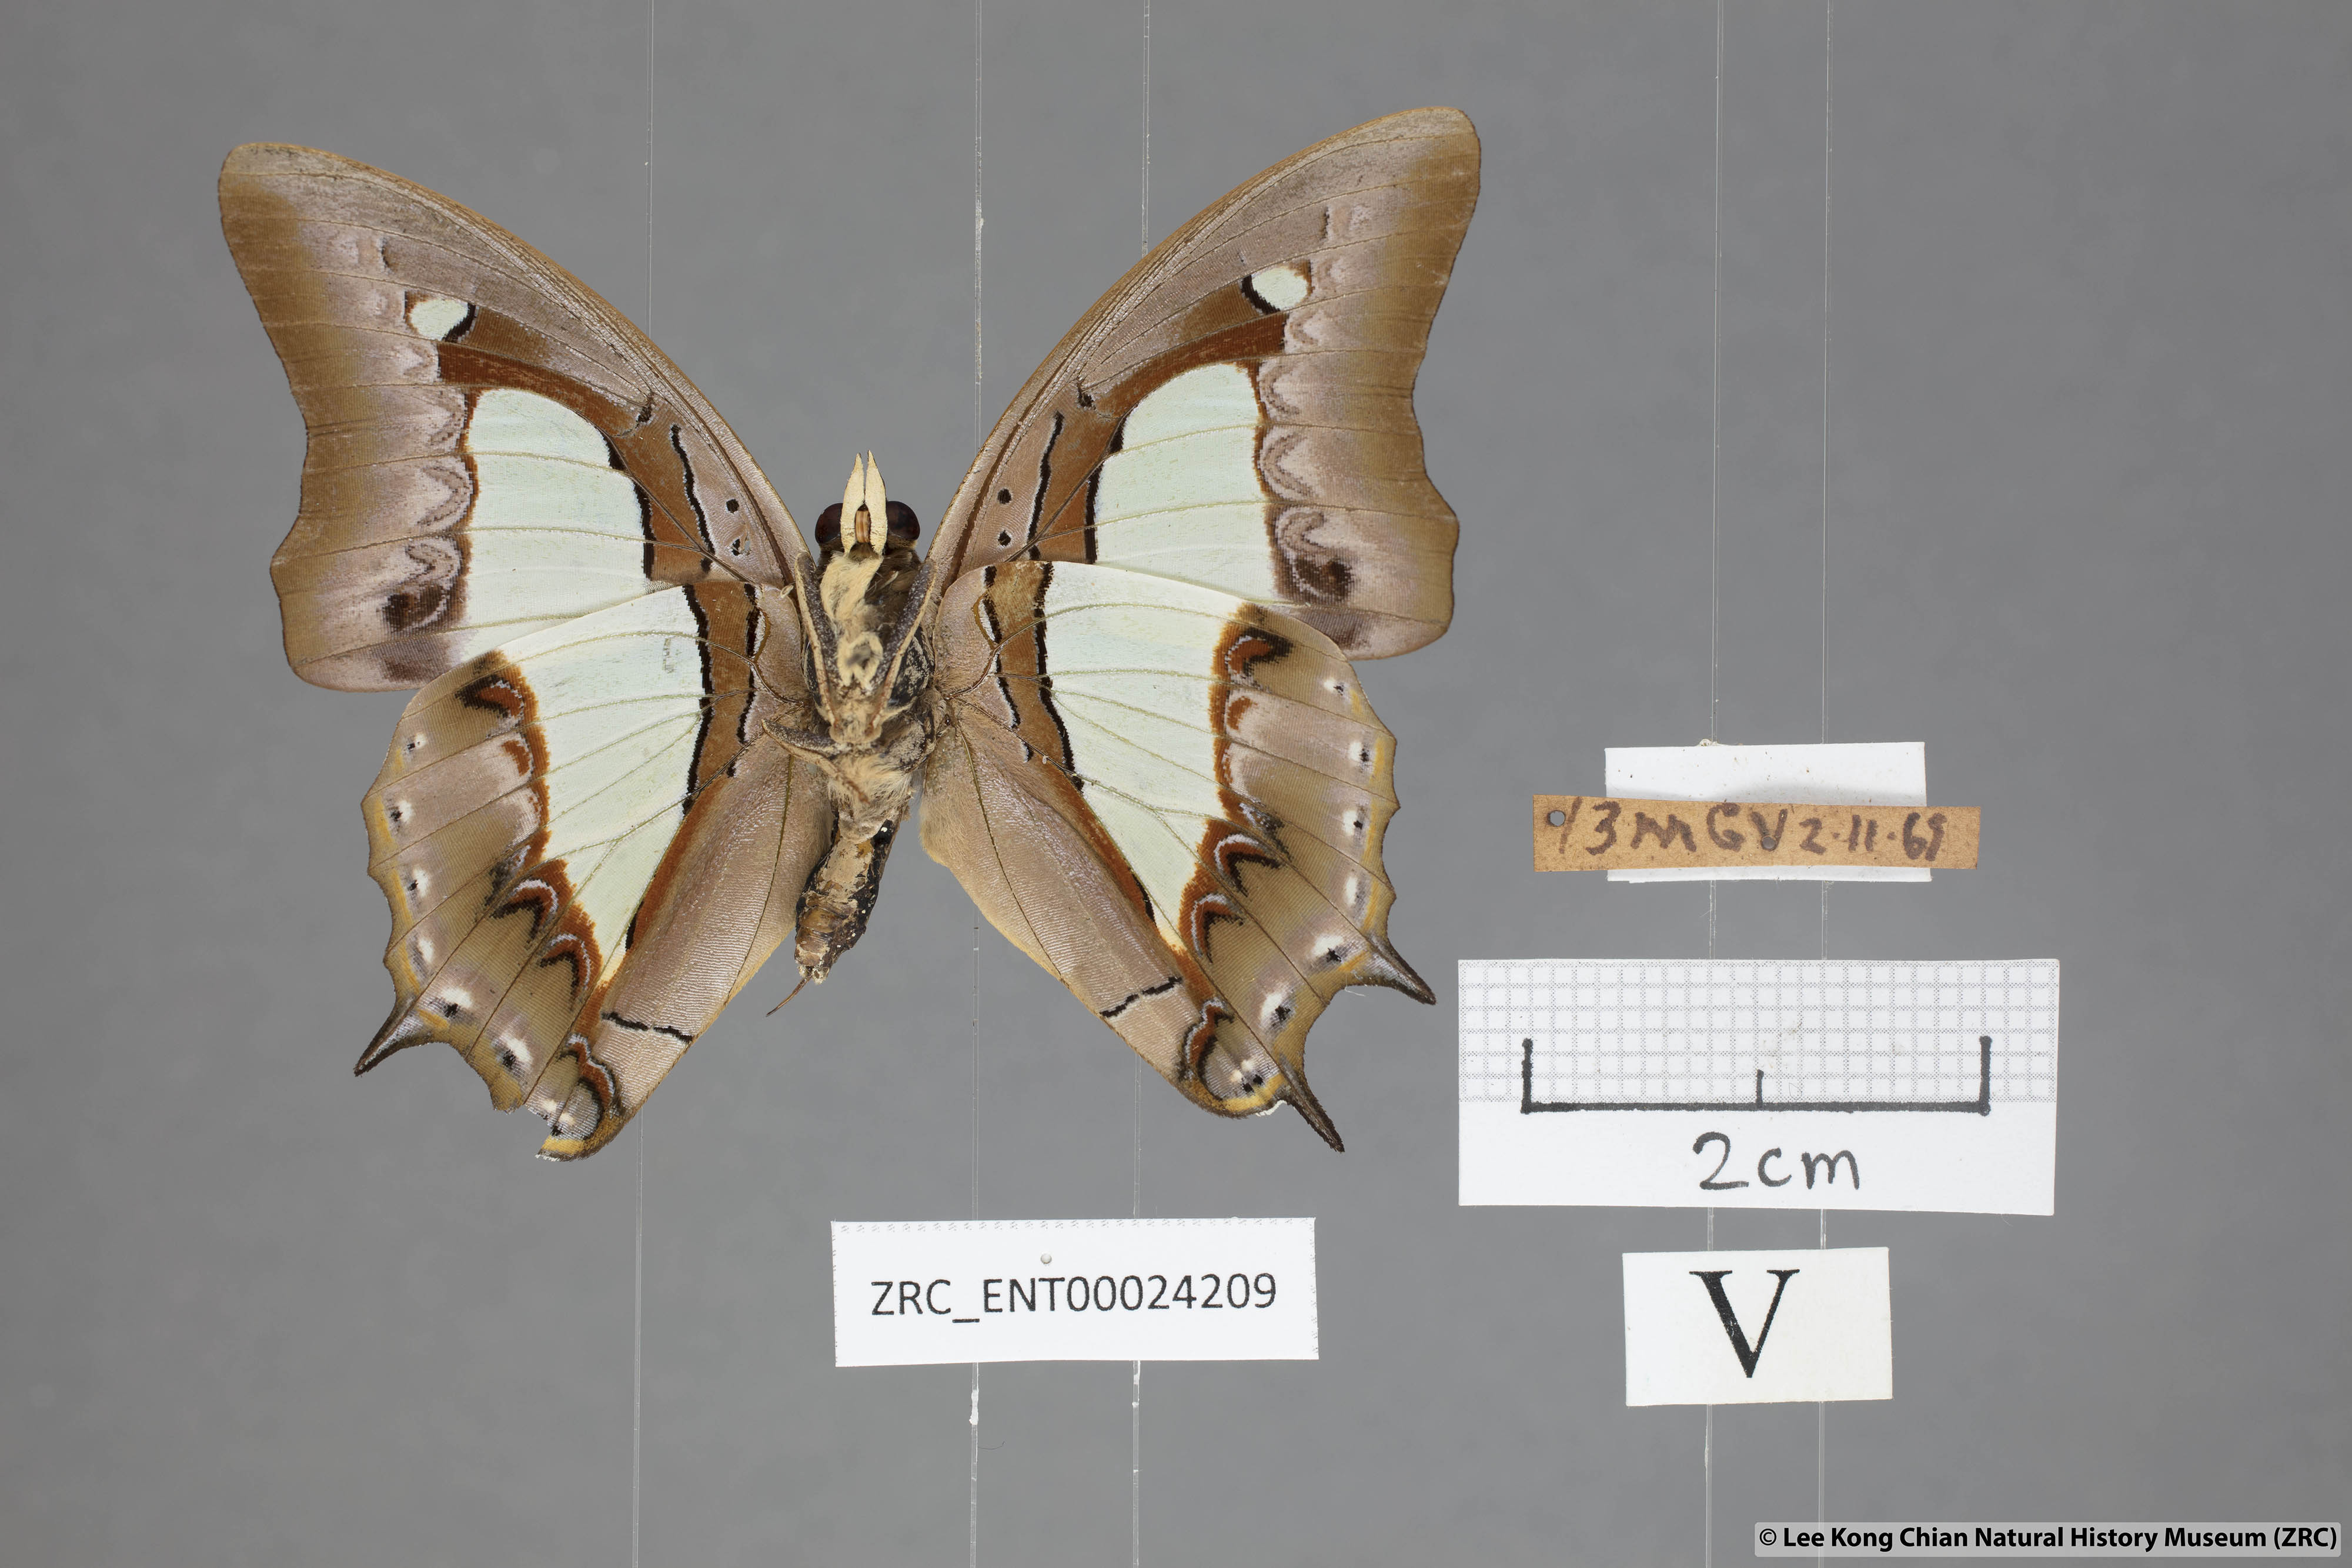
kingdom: Animalia
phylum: Arthropoda
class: Insecta
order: Lepidoptera
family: Nymphalidae
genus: Polyura
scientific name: Polyura athamas
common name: Common nawab
